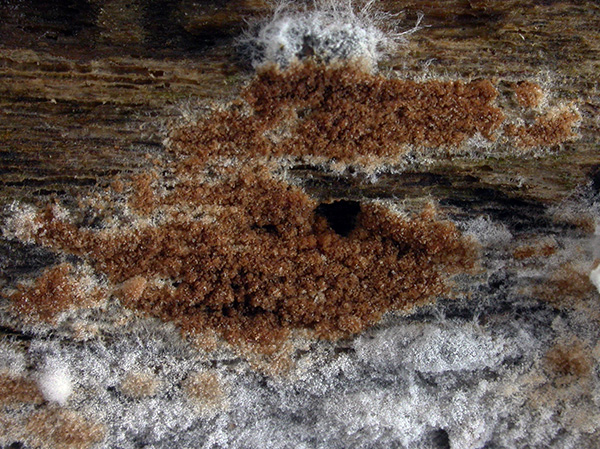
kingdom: Fungi
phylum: Basidiomycota
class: Agaricomycetes
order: Cantharellales
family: Hydnaceae
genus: Sistotrema
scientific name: Sistotrema brinkmannii
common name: bønnesporet kroneskorpe
